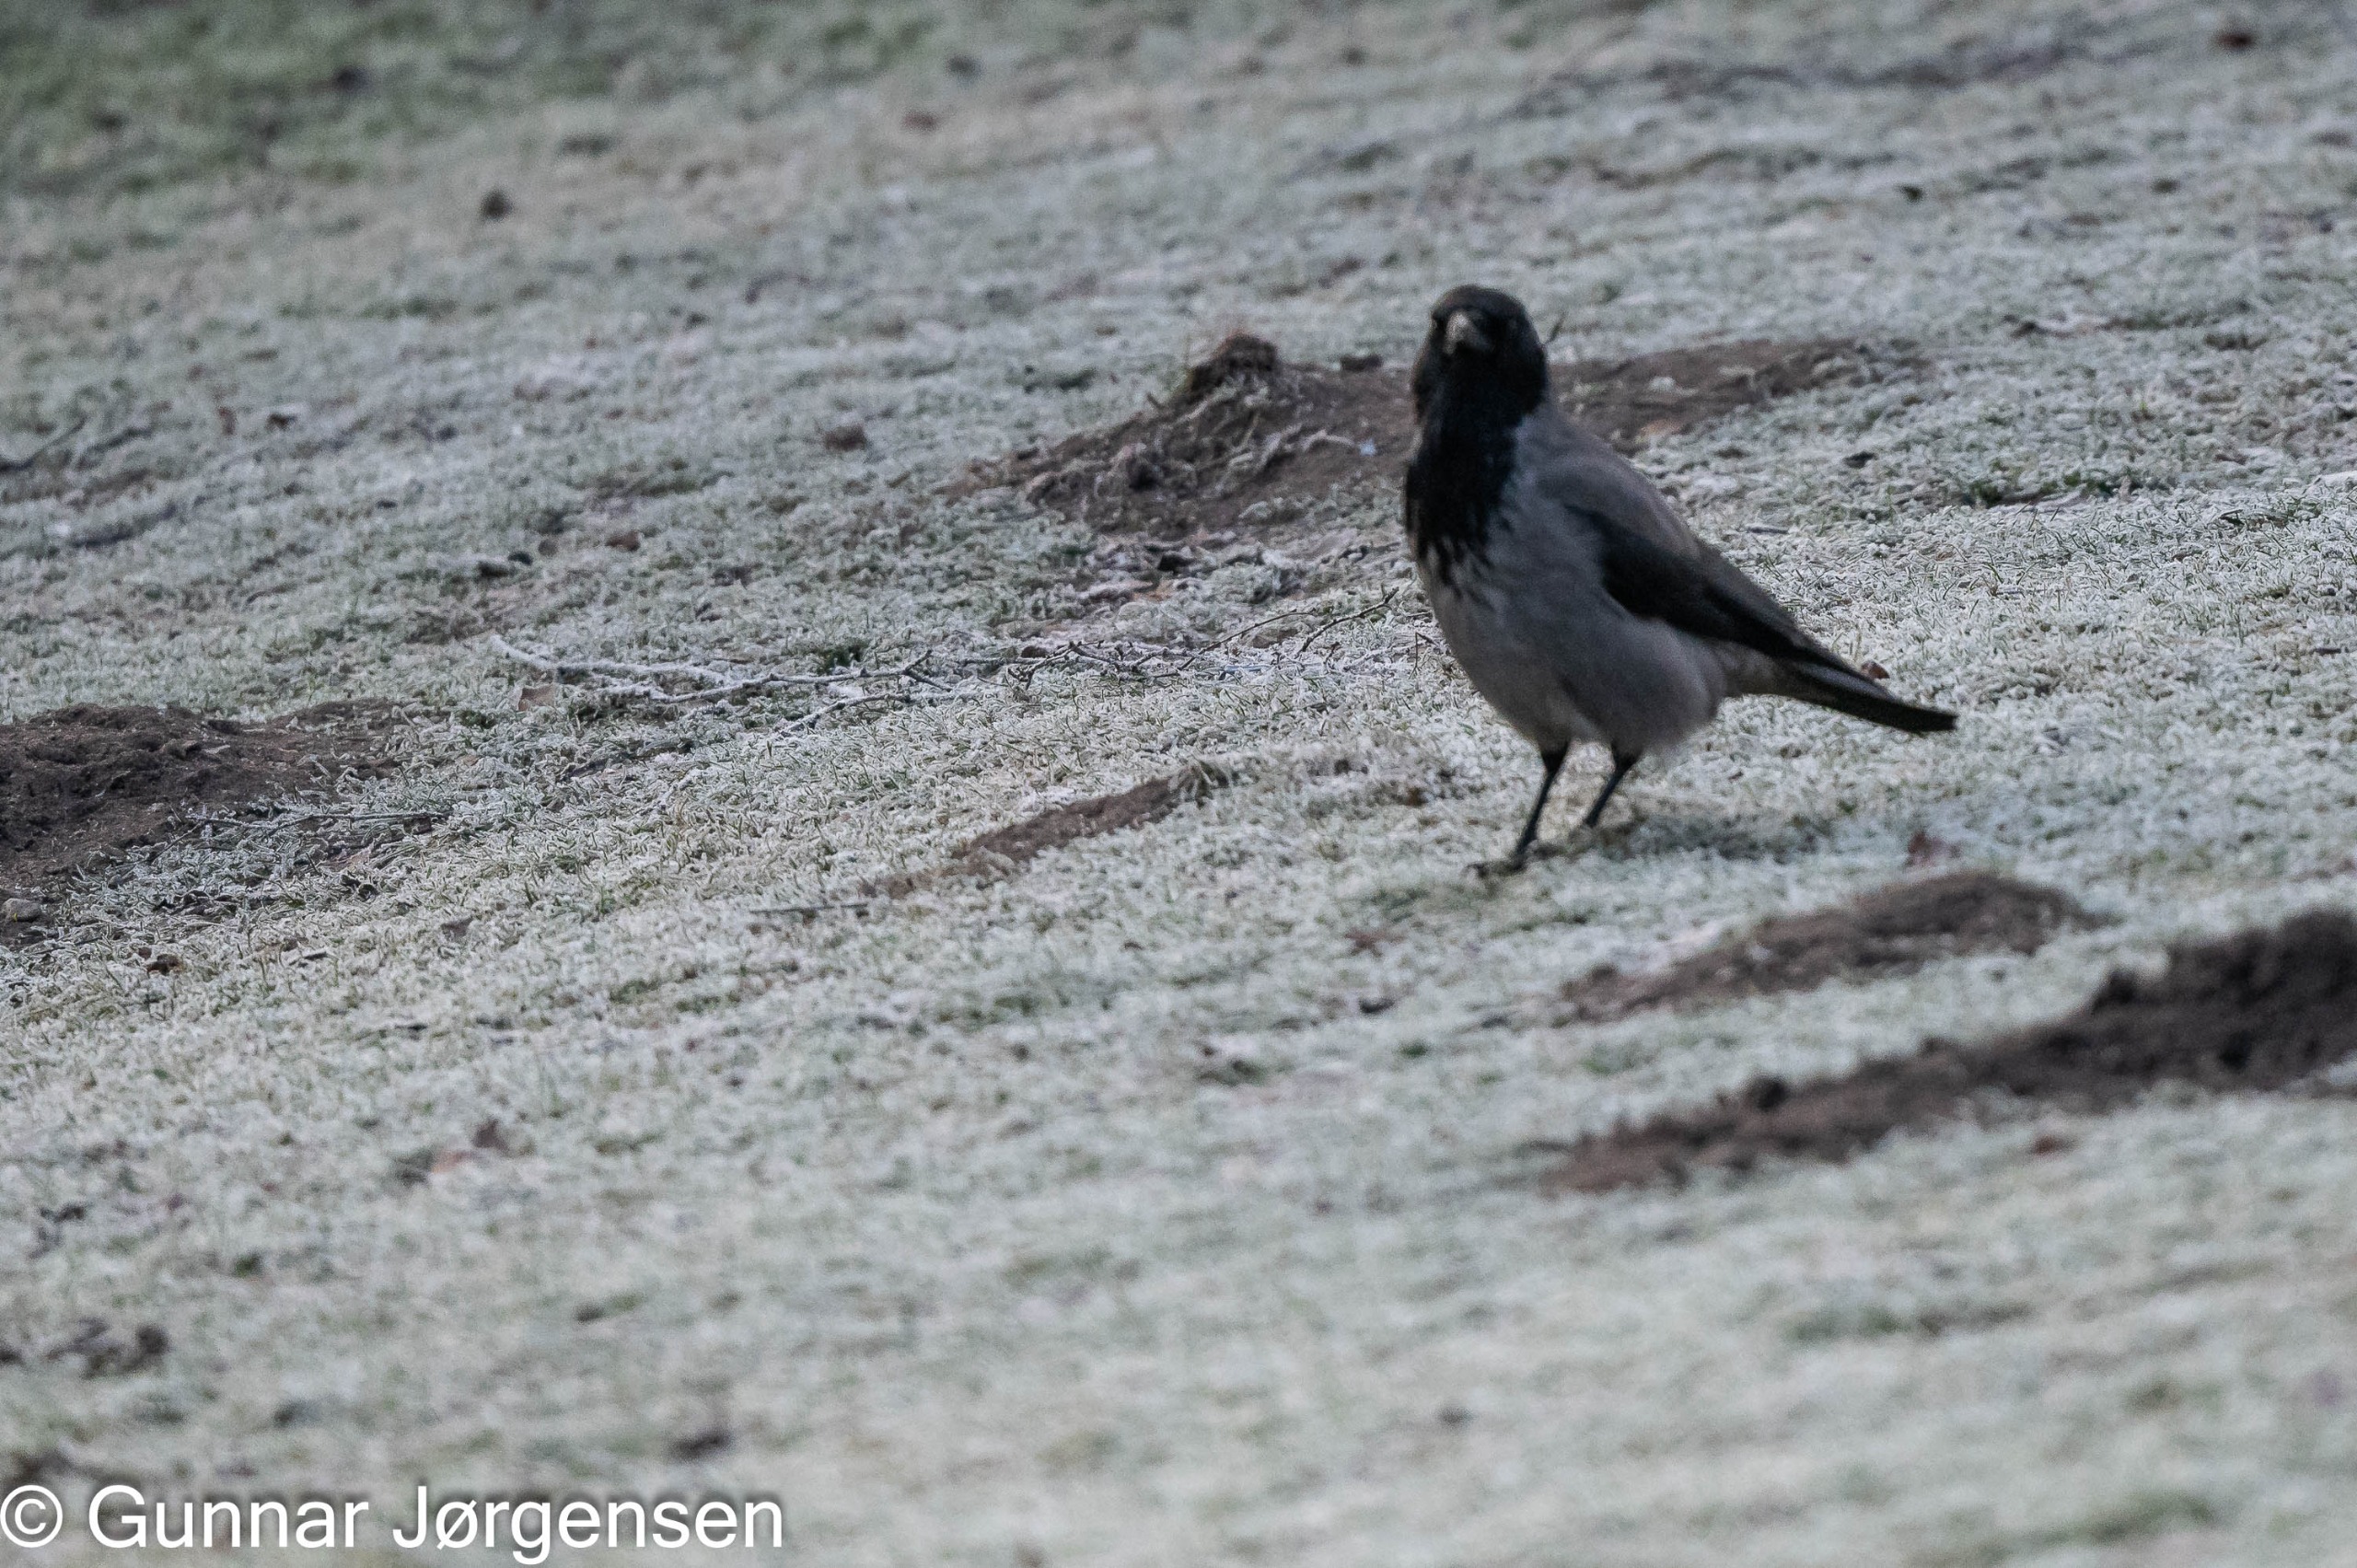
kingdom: Animalia
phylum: Chordata
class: Aves
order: Passeriformes
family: Corvidae
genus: Corvus
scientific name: Corvus cornix
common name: Gråkrage
